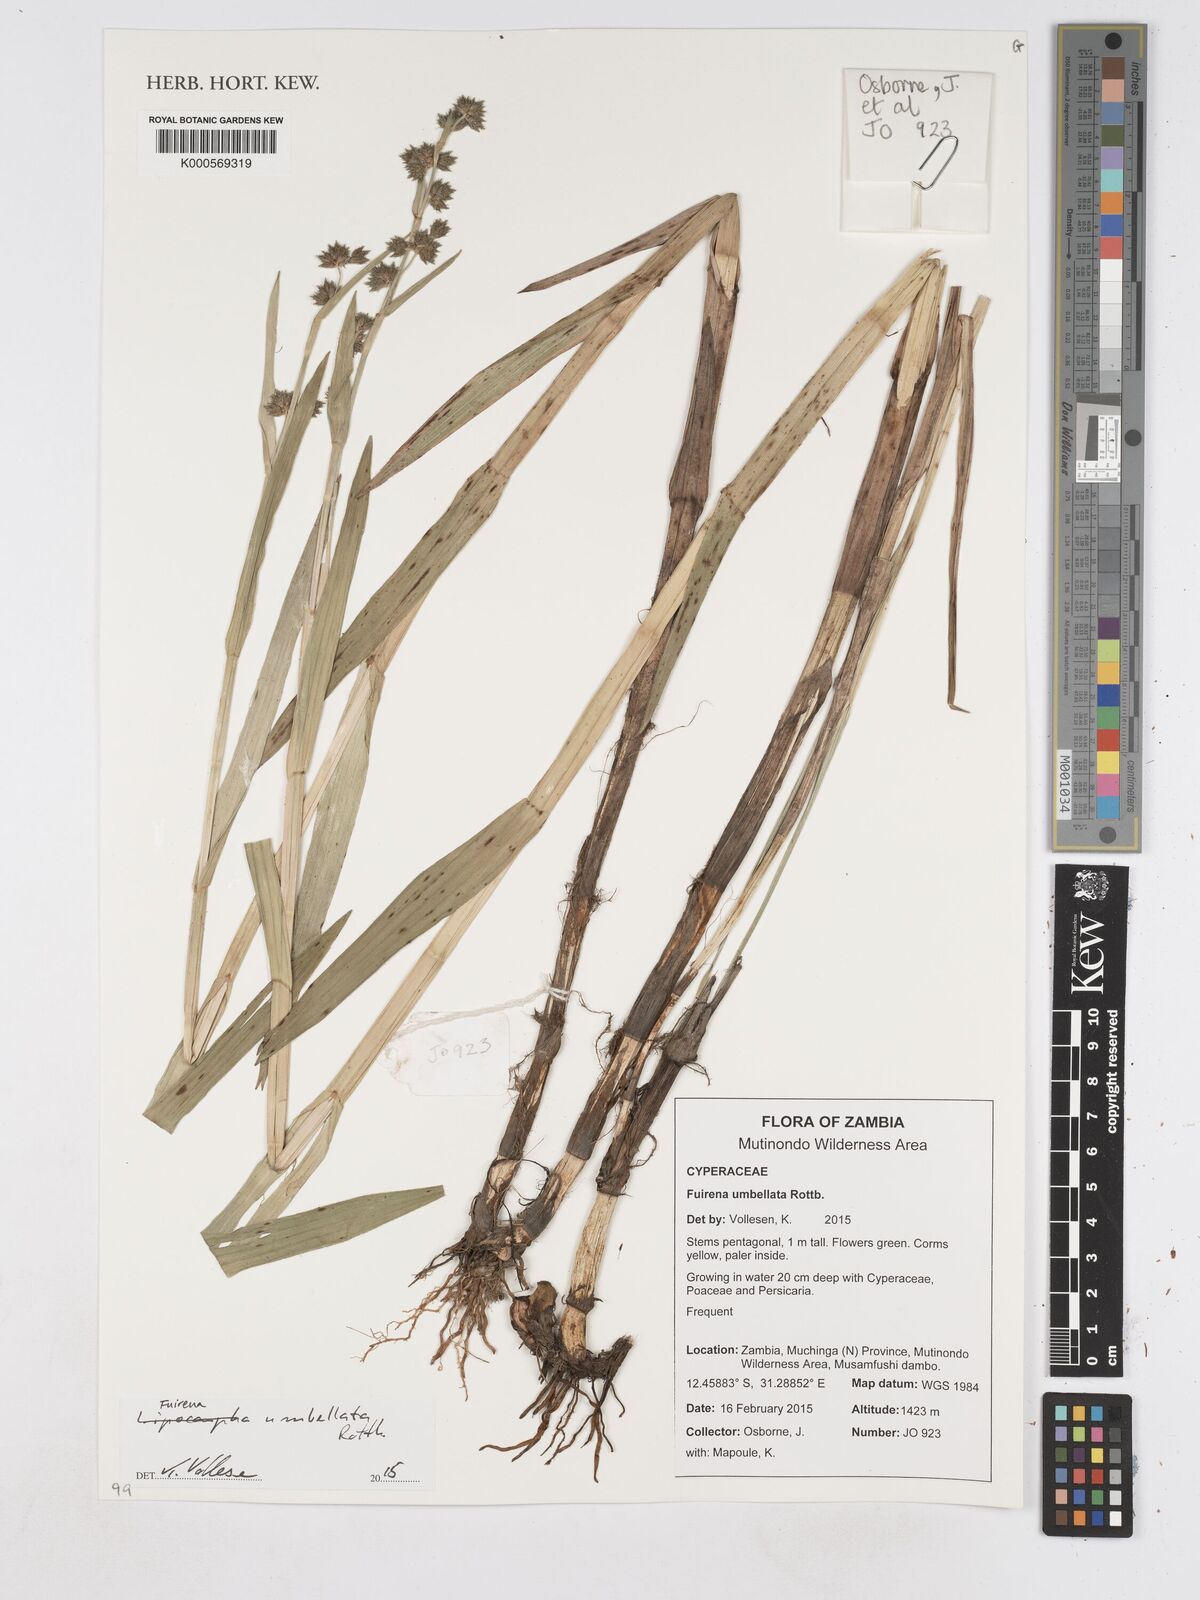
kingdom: Plantae
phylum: Tracheophyta
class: Liliopsida
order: Poales
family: Cyperaceae
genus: Fuirena
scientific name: Fuirena umbellata
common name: Yefen
